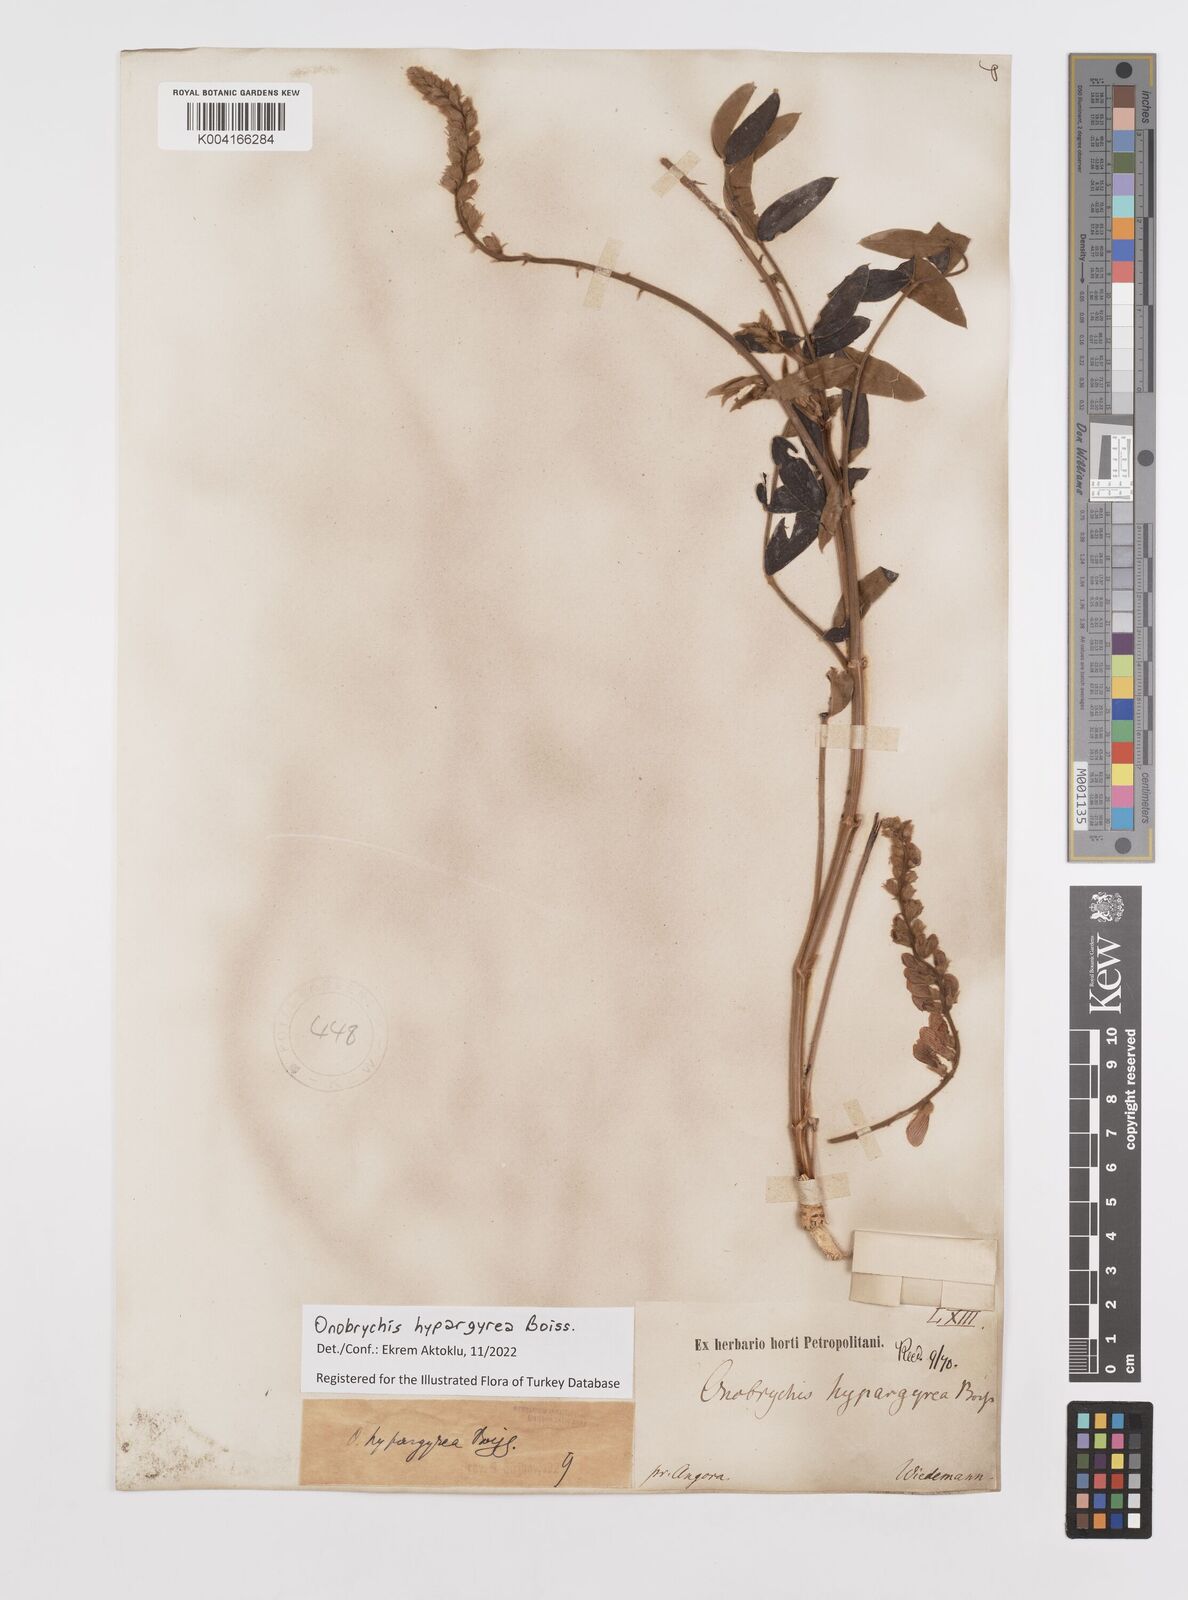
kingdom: Plantae
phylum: Tracheophyta
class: Magnoliopsida
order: Fabales
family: Fabaceae
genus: Onobrychis
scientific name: Onobrychis hypargyrea
